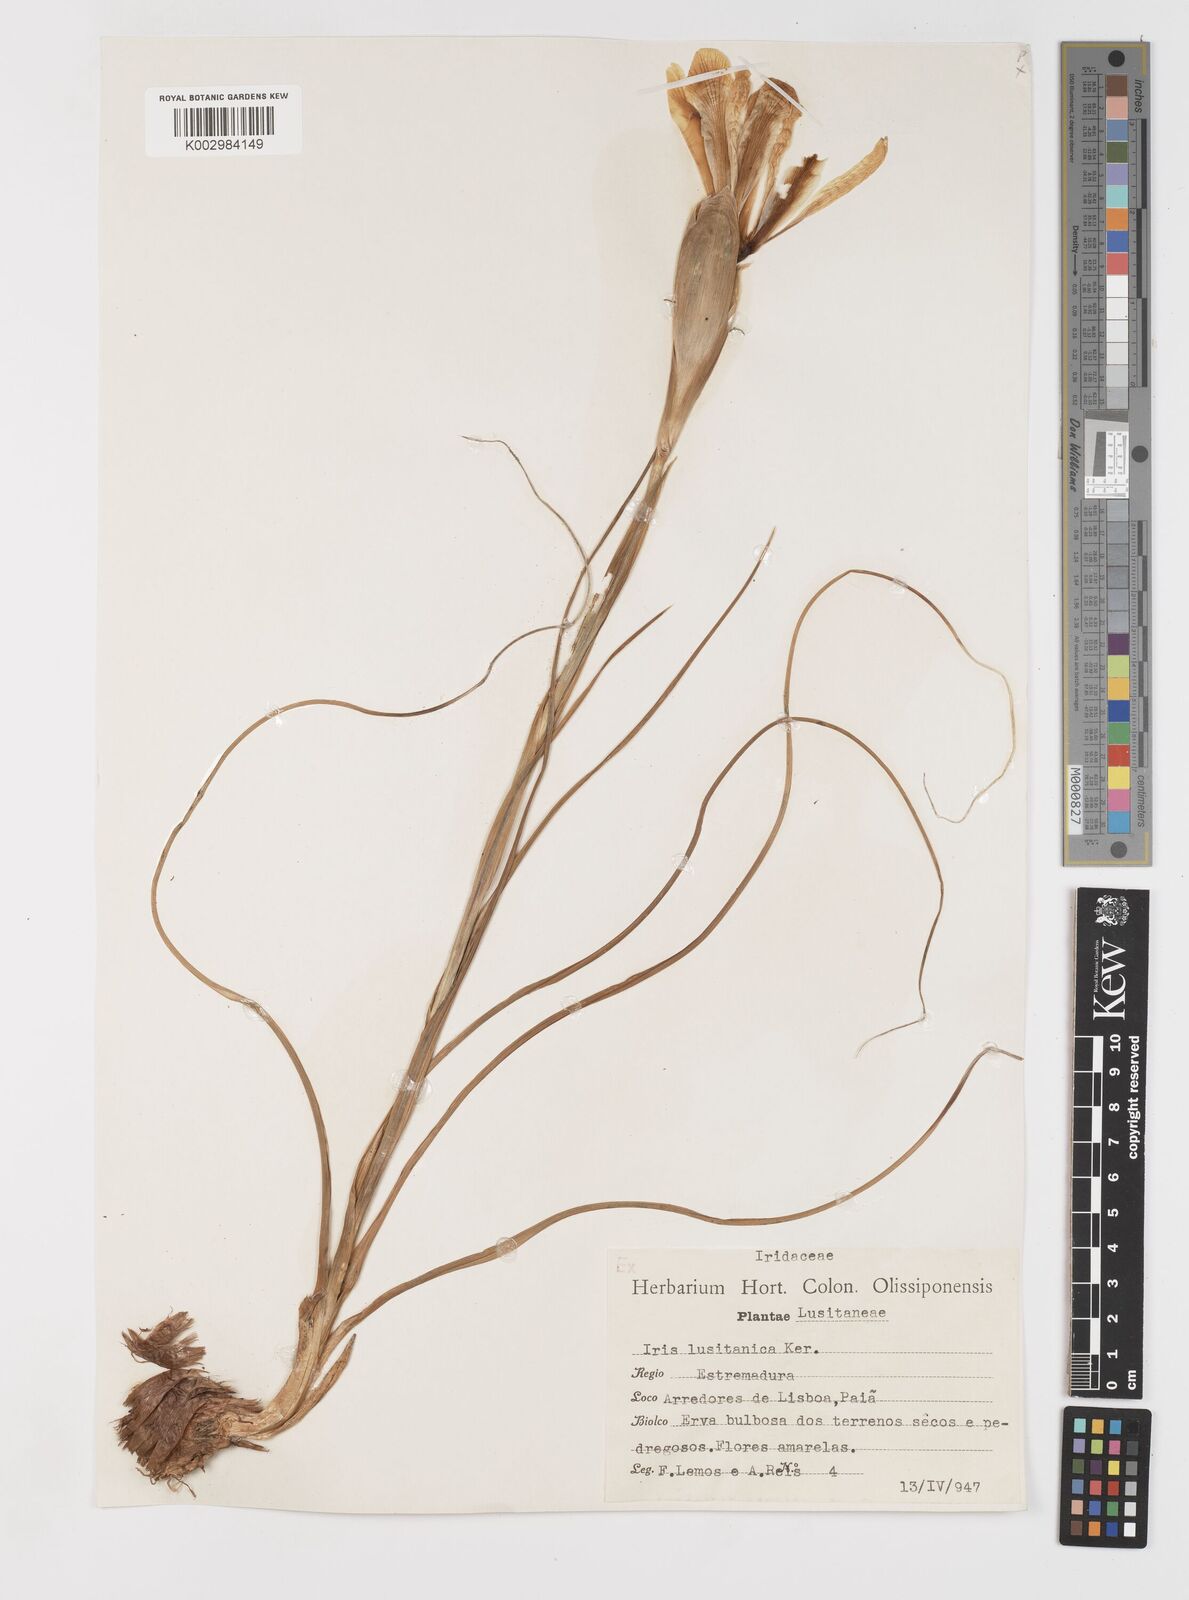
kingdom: Plantae
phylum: Tracheophyta
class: Liliopsida
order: Asparagales
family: Iridaceae
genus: Iris
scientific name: Iris xiphium
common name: Spanish iris
